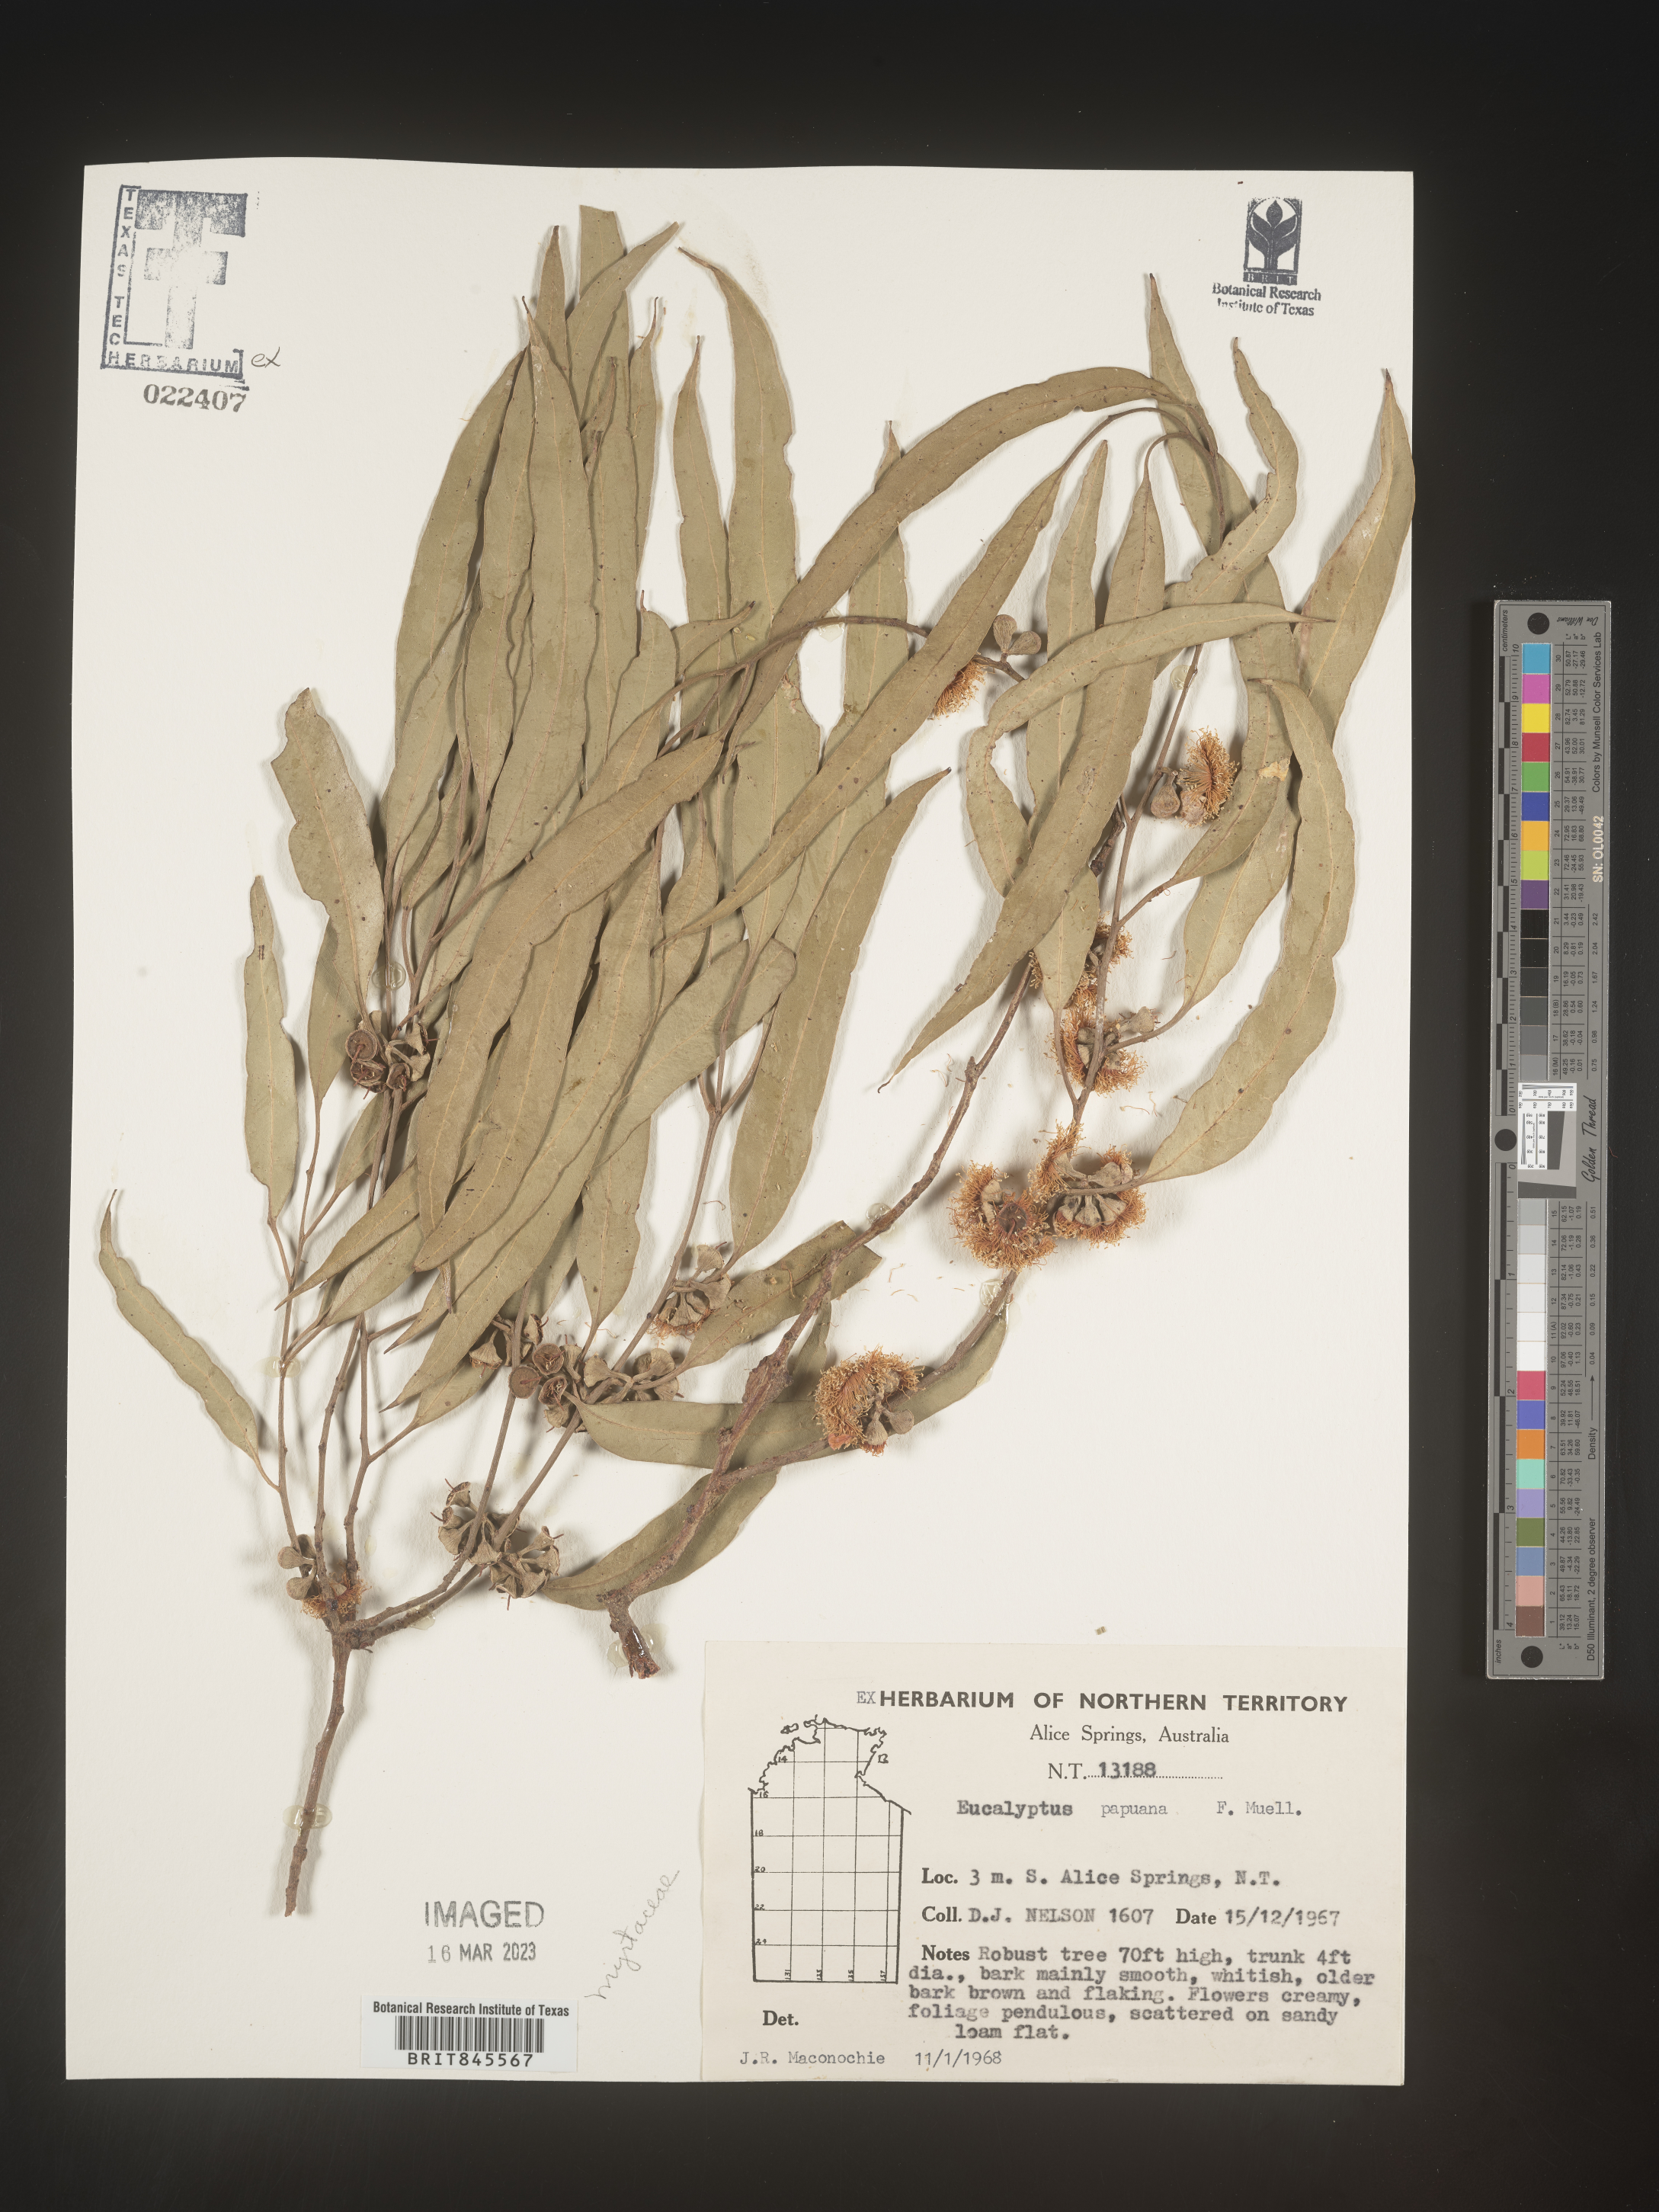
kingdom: Plantae
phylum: Tracheophyta
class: Magnoliopsida
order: Myrtales
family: Myrtaceae
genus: Eucalyptus
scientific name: Eucalyptus
